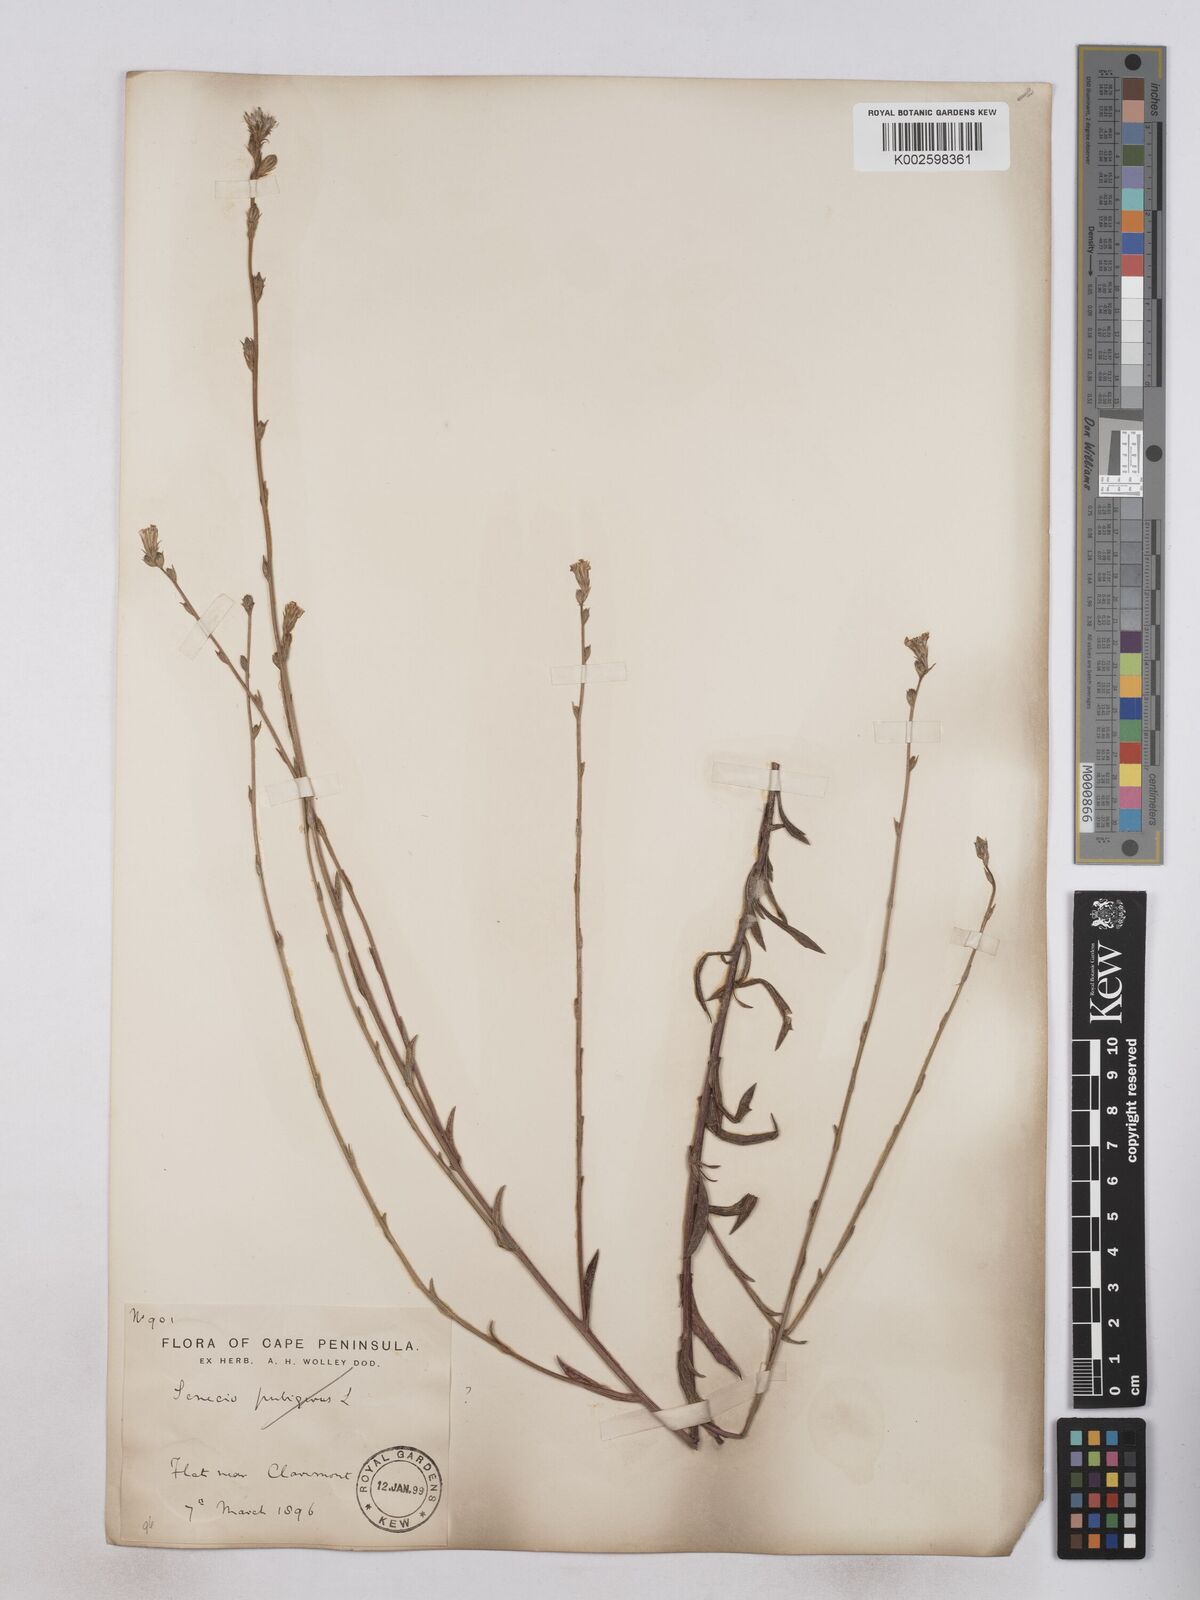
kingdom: Plantae
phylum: Tracheophyta
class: Magnoliopsida
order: Asterales
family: Asteraceae
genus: Senecio
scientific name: Senecio phalachrolaenus
